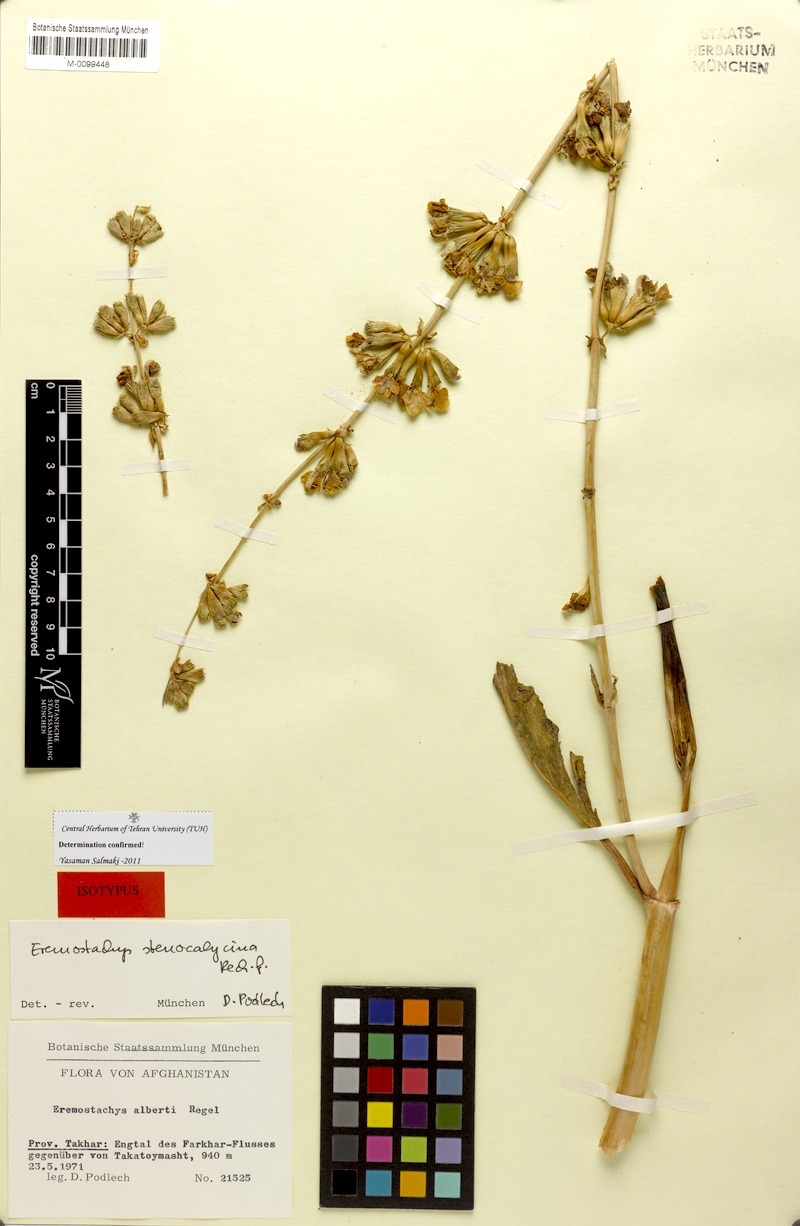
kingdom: Plantae
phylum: Tracheophyta
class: Magnoliopsida
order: Lamiales
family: Lamiaceae
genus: Phlomoides
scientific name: Phlomoides stenocalycina
